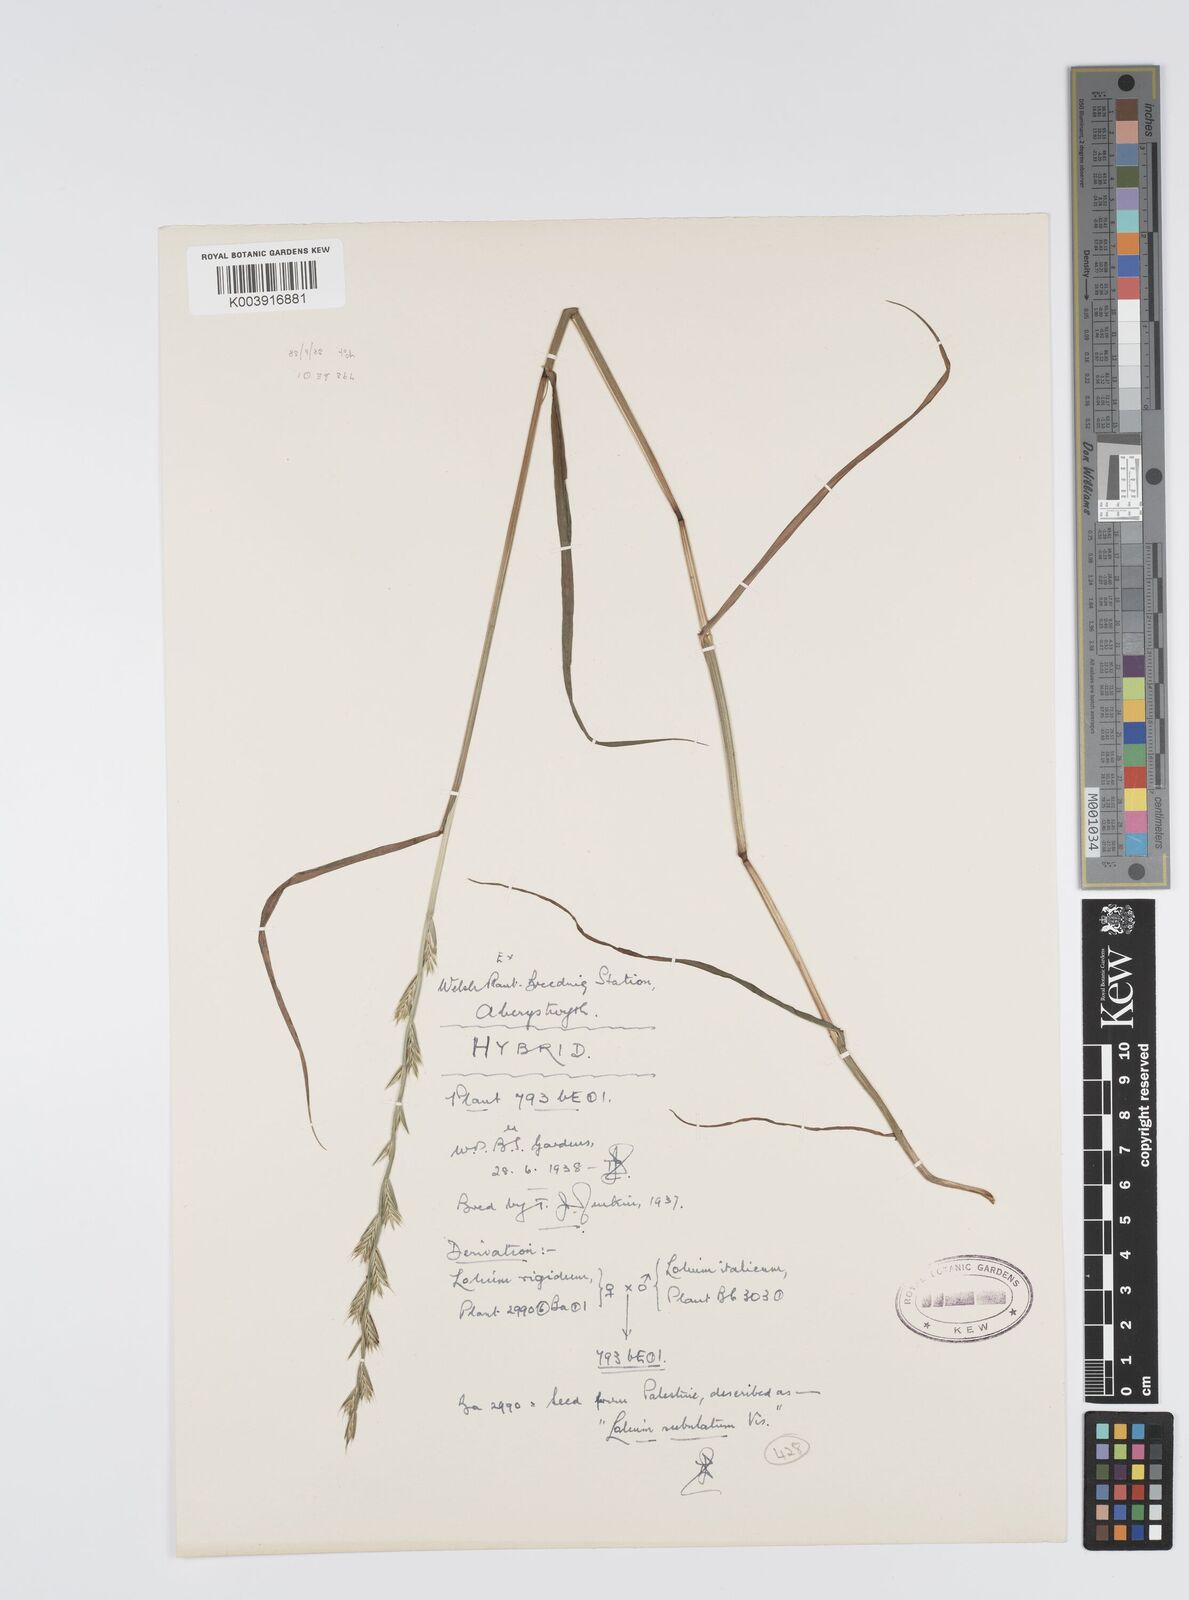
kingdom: Plantae
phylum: Tracheophyta
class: Liliopsida
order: Poales
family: Poaceae
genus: Lolium
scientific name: Lolium multiflorum
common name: Annual ryegrass
